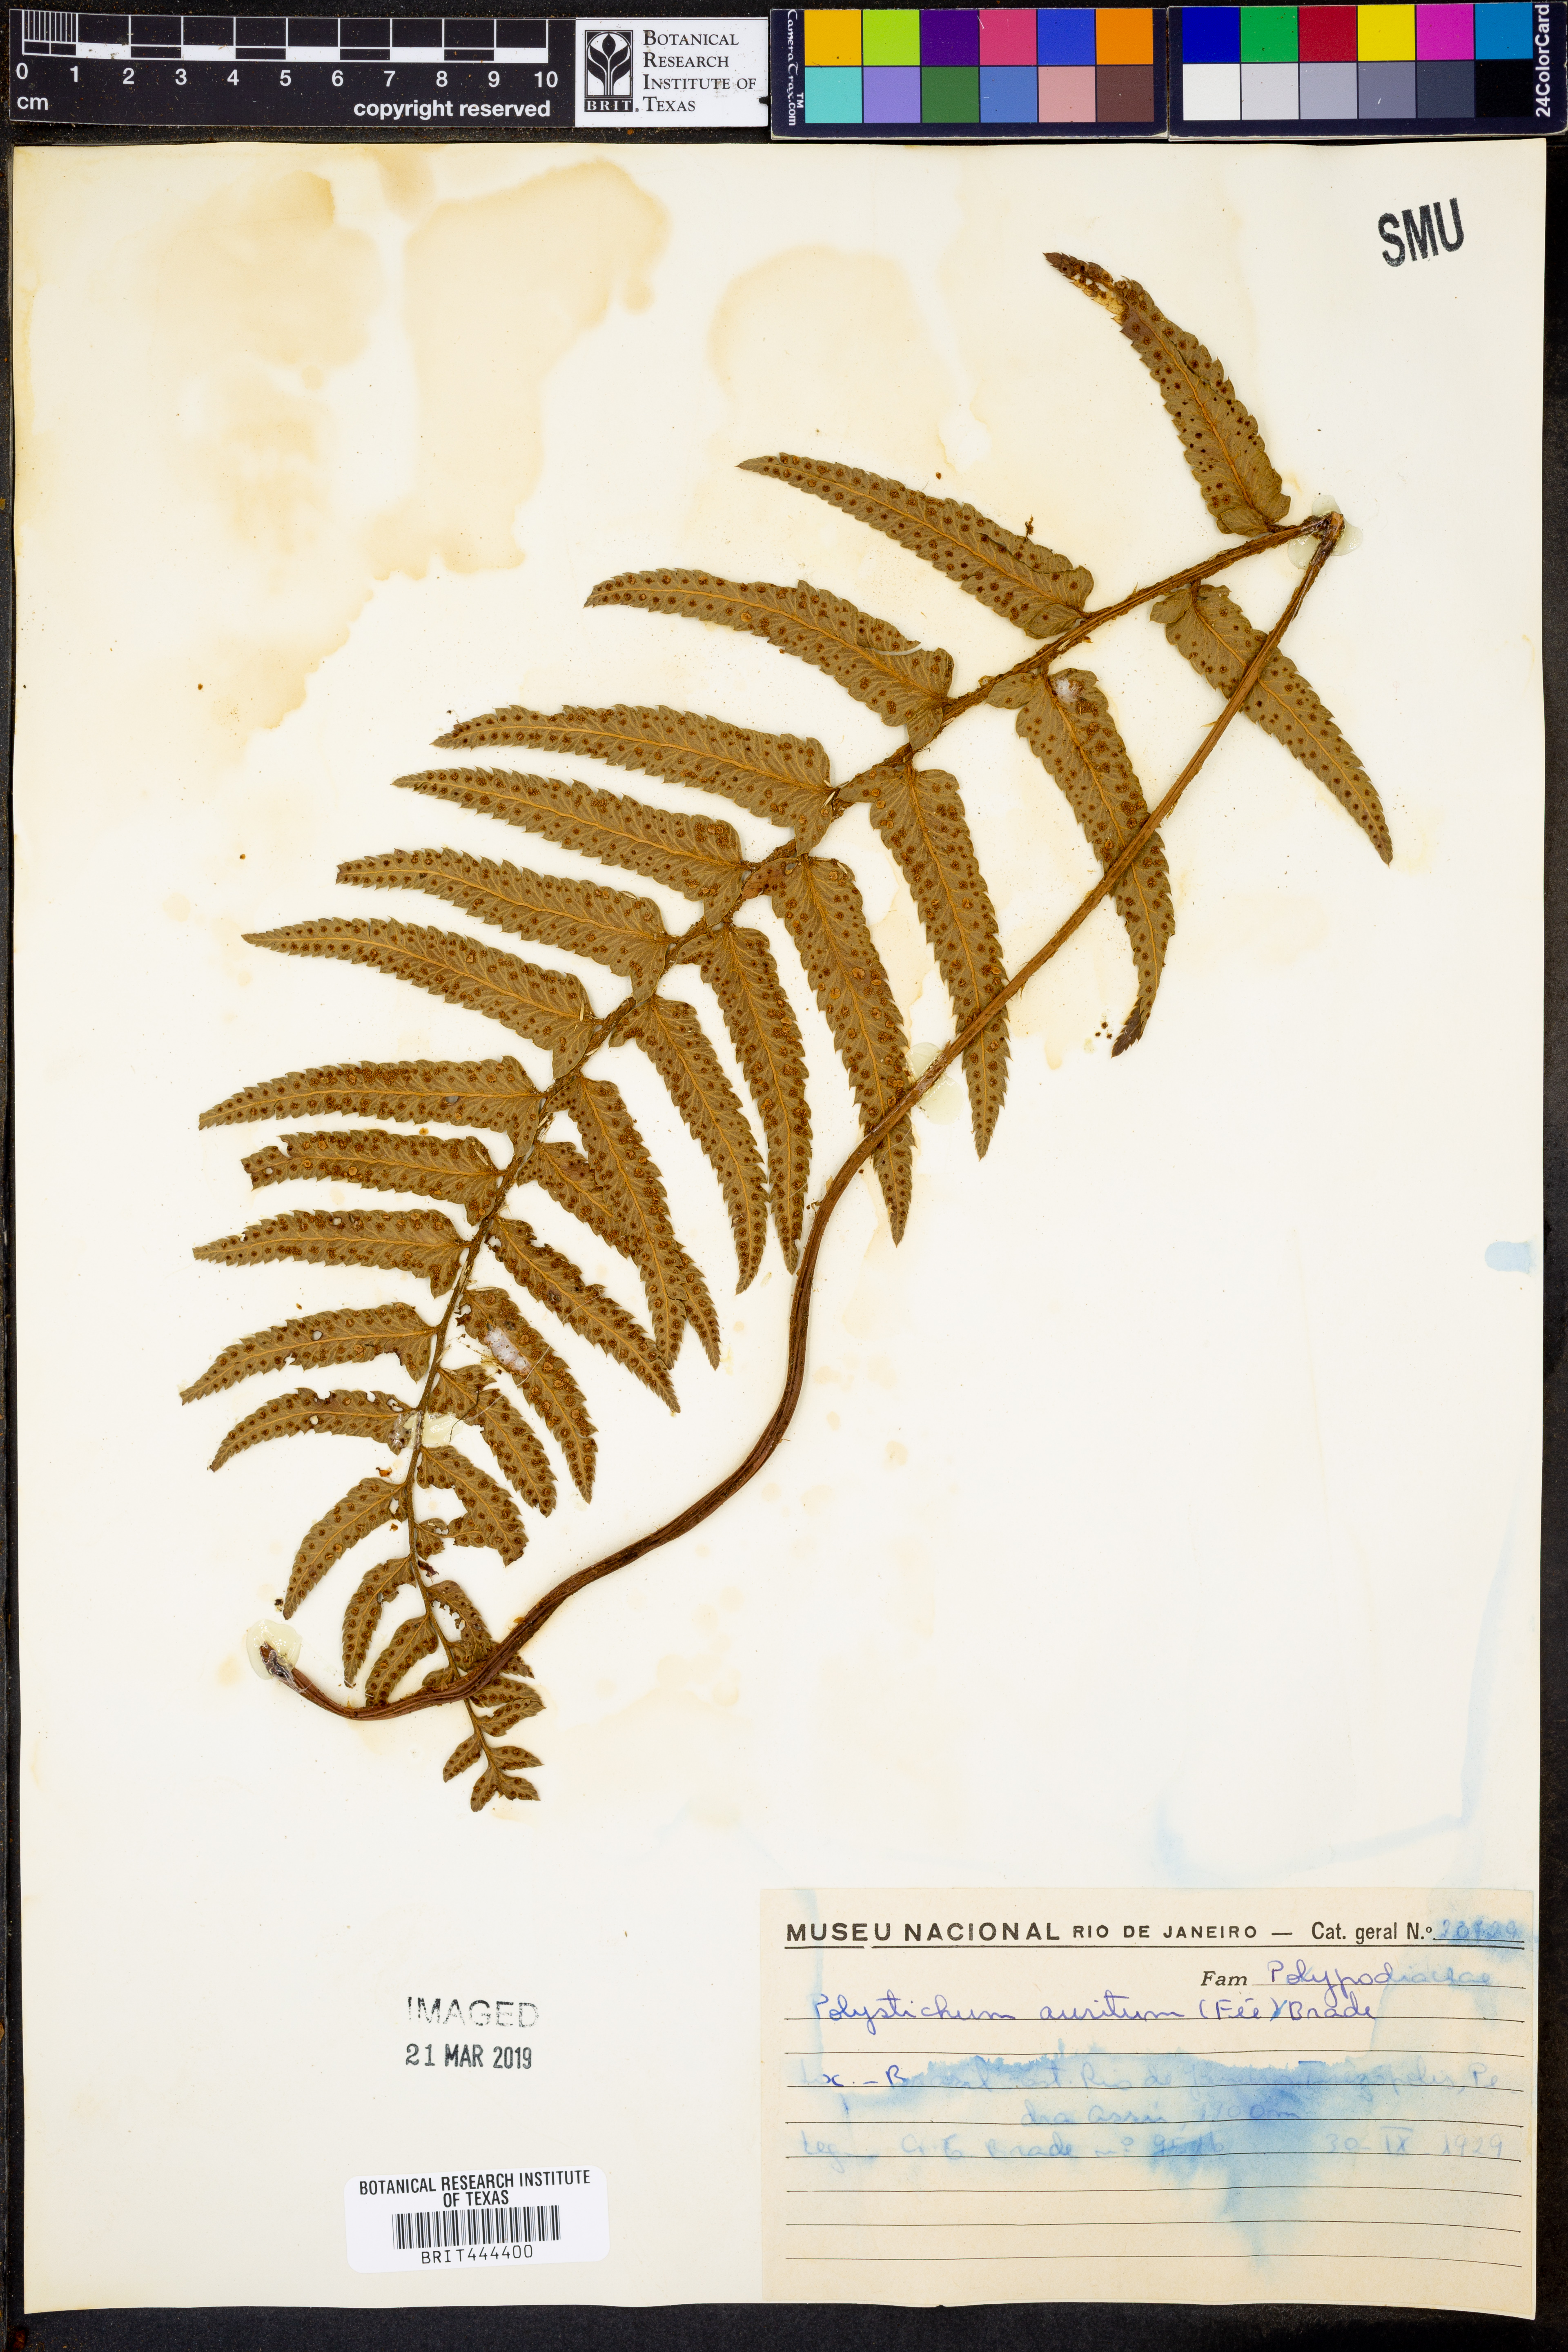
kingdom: Plantae
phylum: Tracheophyta
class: Polypodiopsida
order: Polypodiales
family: Dryopteridaceae
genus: Phanerophlebia
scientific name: Phanerophlebia aurita
